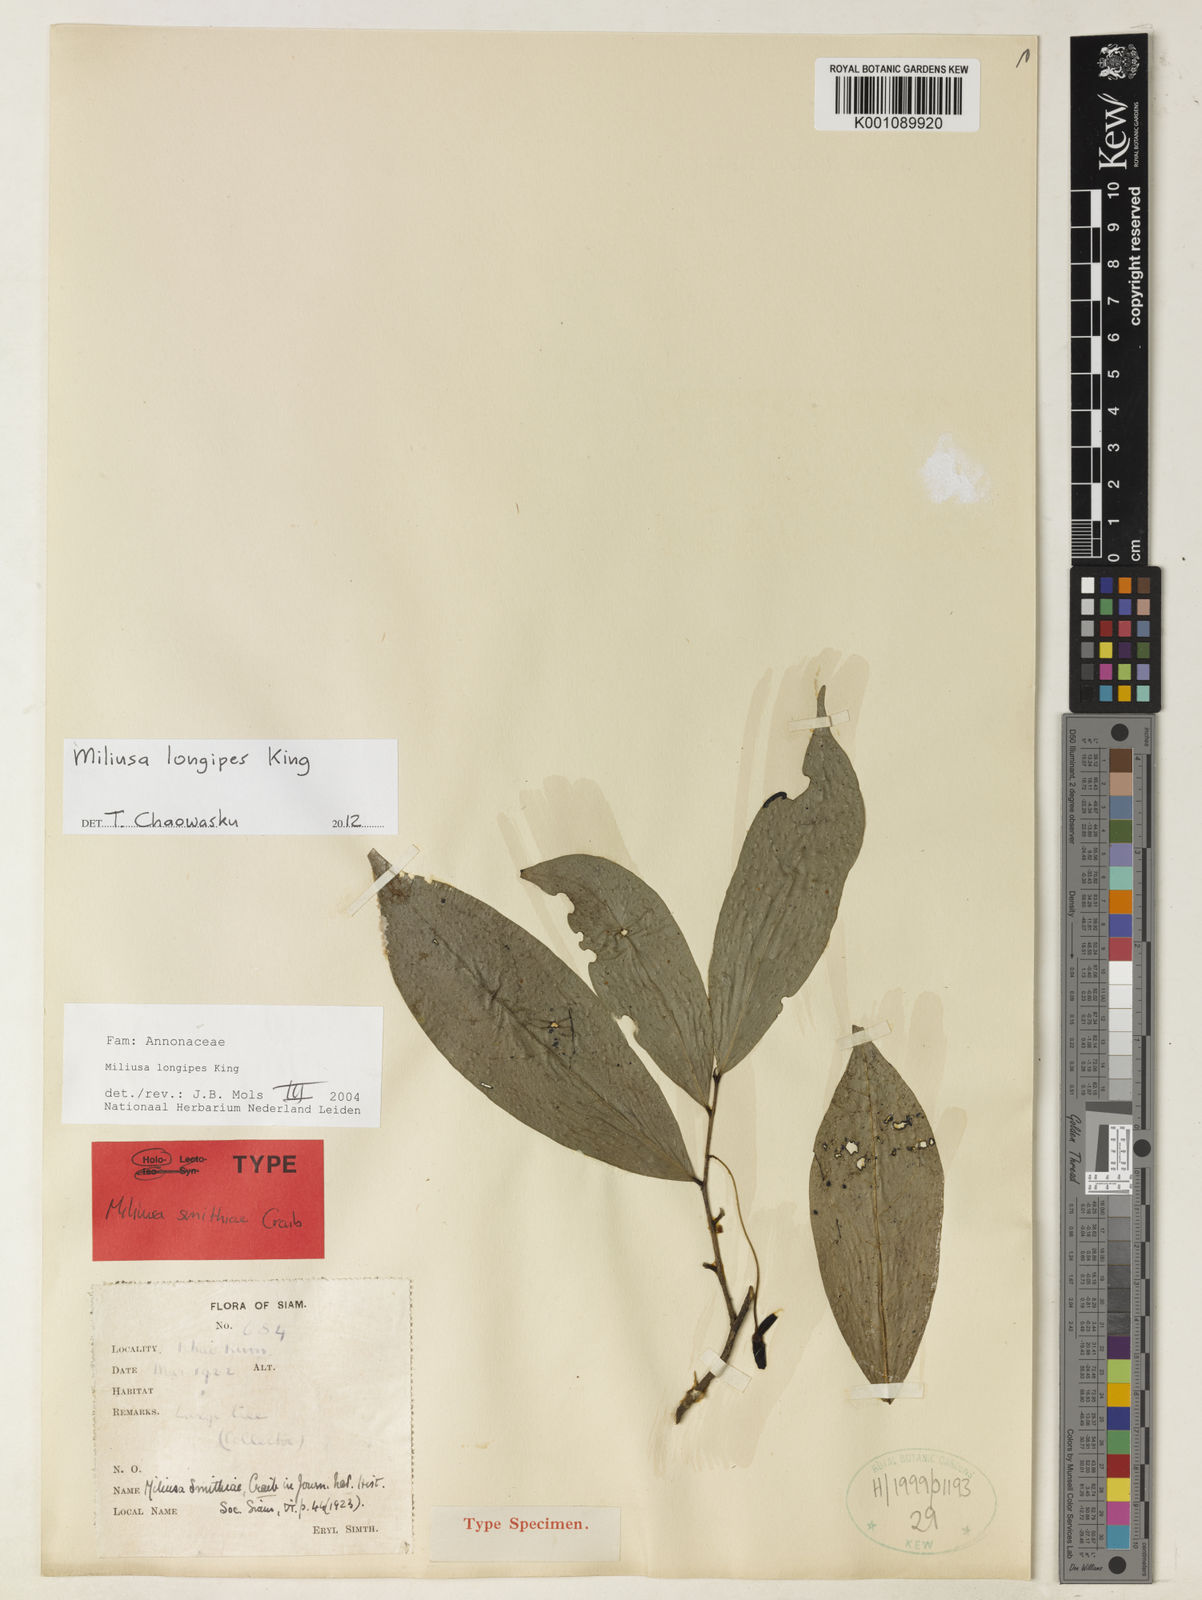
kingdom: Plantae
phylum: Tracheophyta
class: Magnoliopsida
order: Magnoliales
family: Annonaceae
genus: Miliusa
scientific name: Miliusa longipes
